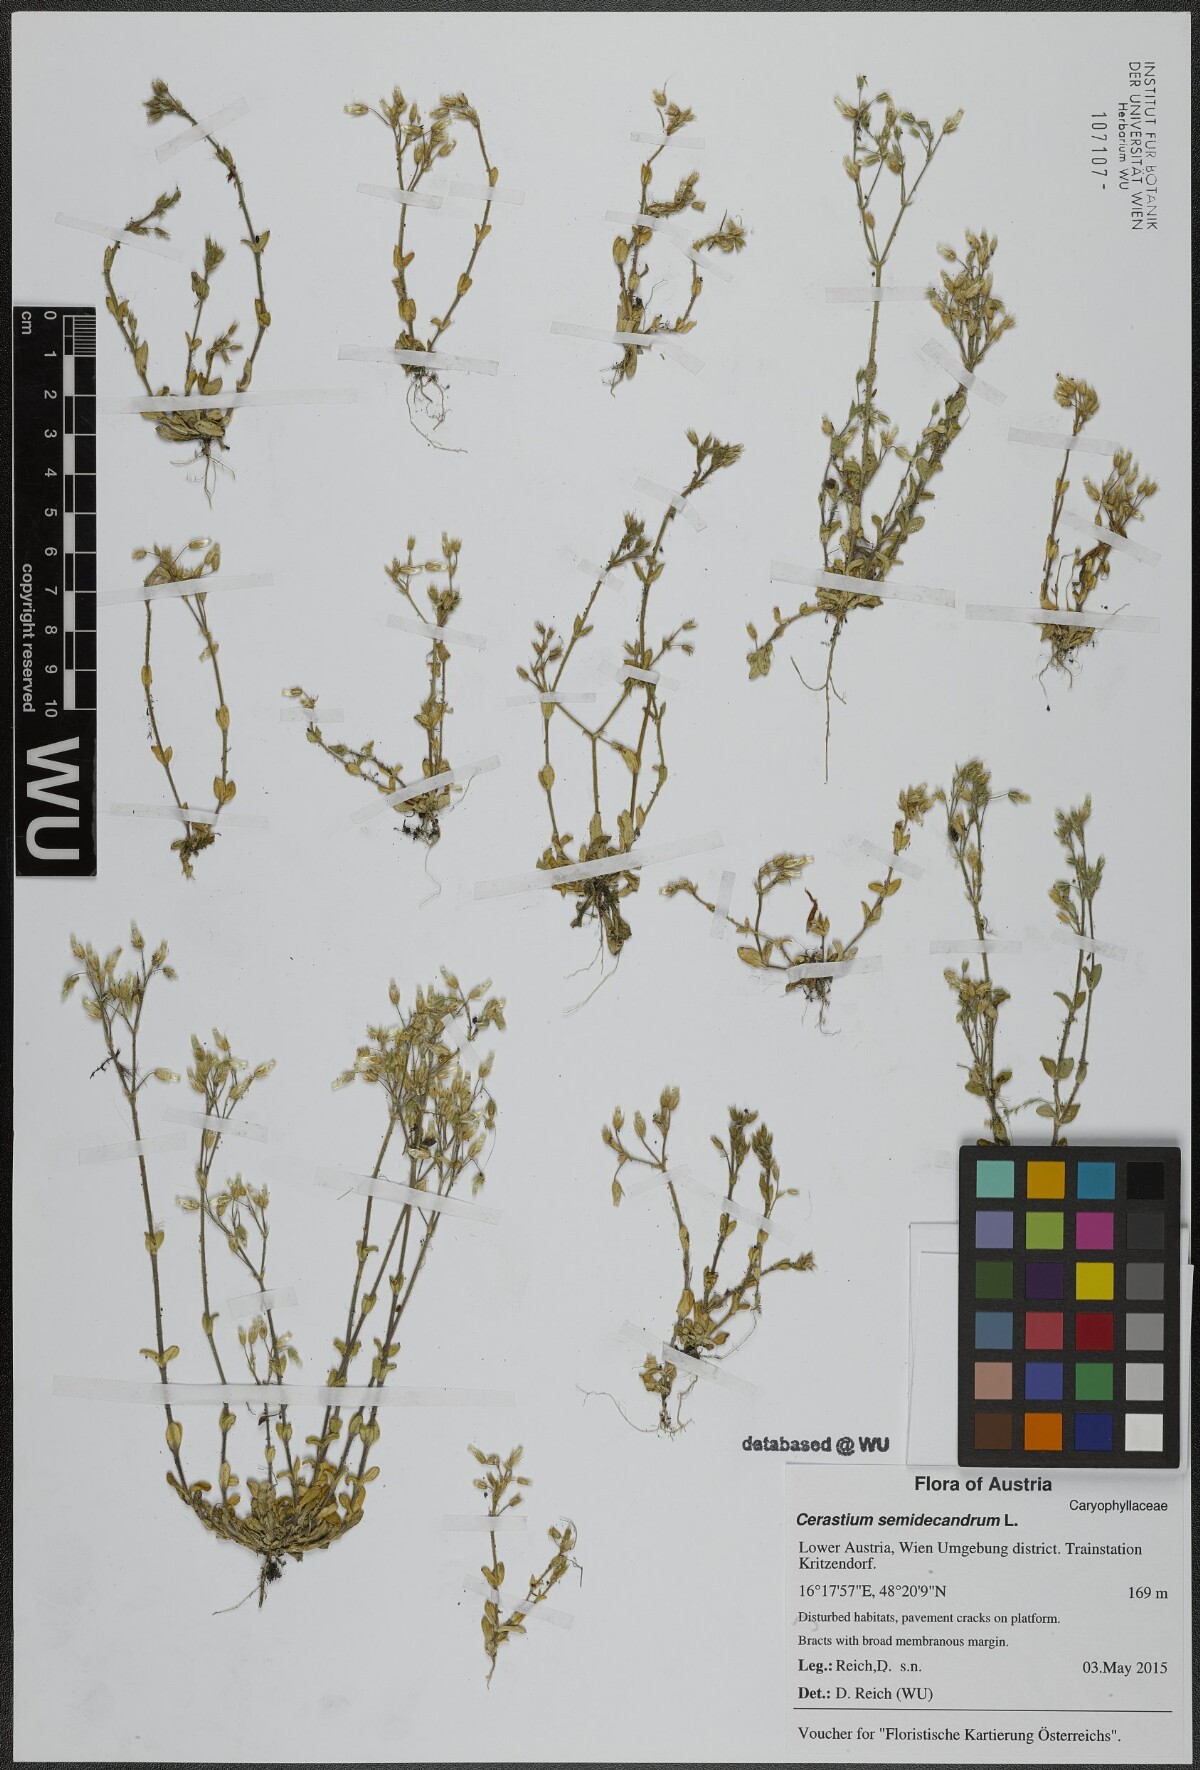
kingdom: Plantae
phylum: Tracheophyta
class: Magnoliopsida
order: Caryophyllales
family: Caryophyllaceae
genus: Cerastium
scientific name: Cerastium semidecandrum
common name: Little mouse-ear
